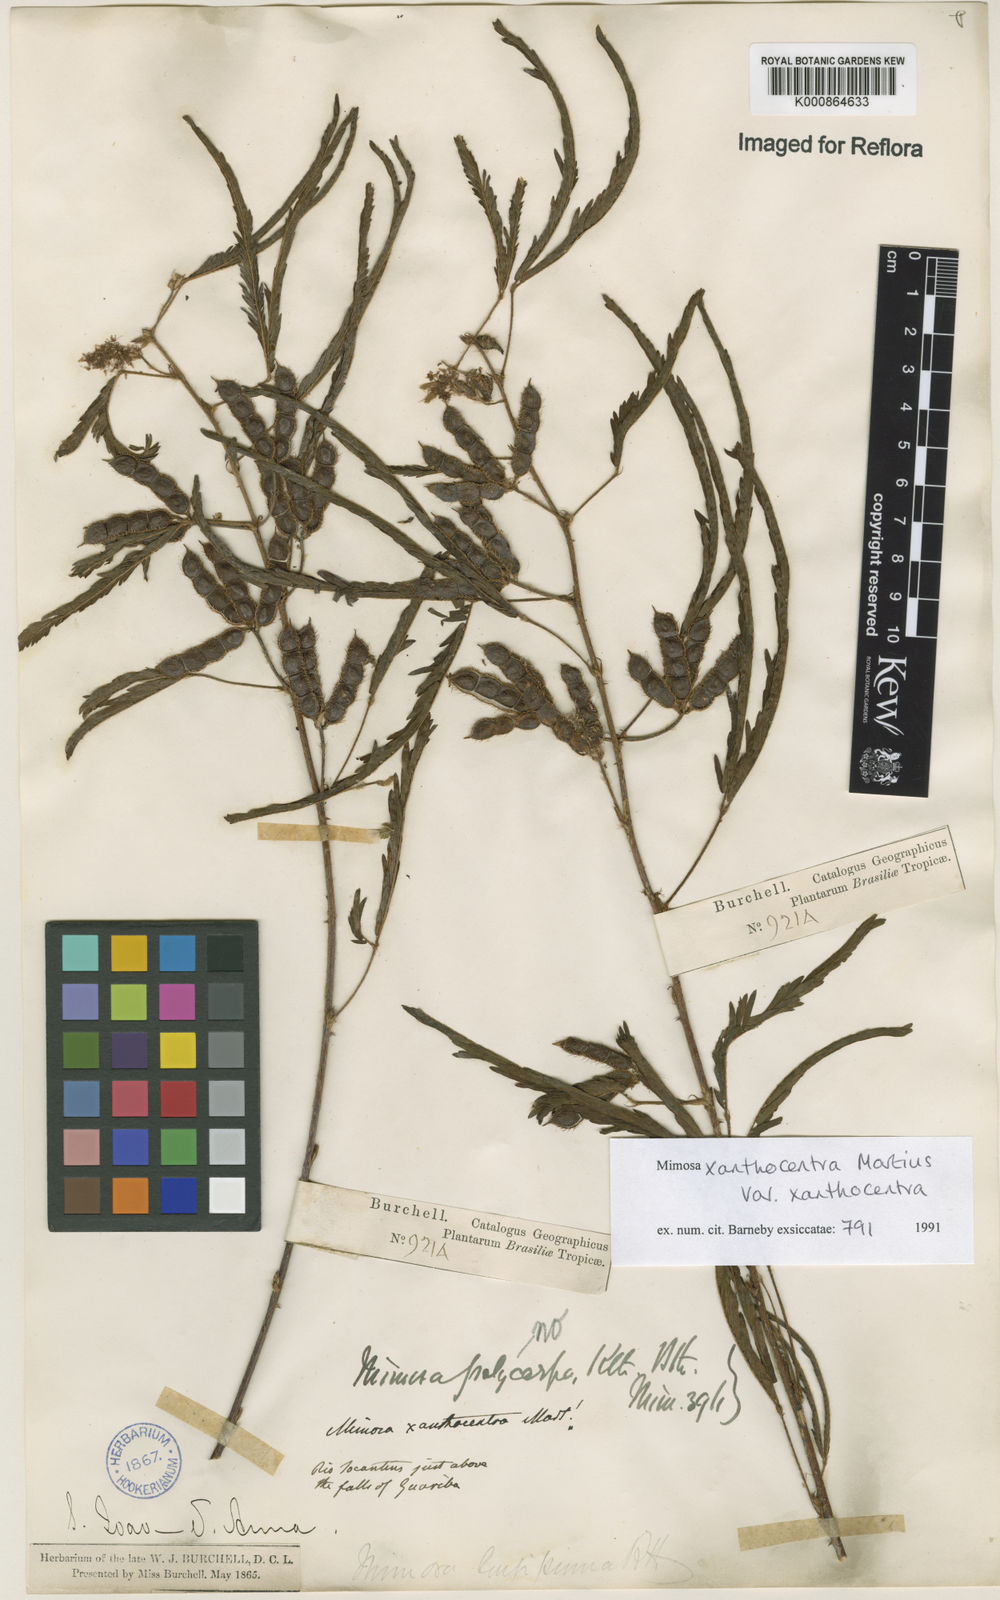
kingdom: Plantae
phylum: Tracheophyta
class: Magnoliopsida
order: Fabales
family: Fabaceae
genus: Mimosa
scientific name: Mimosa xanthocentra
